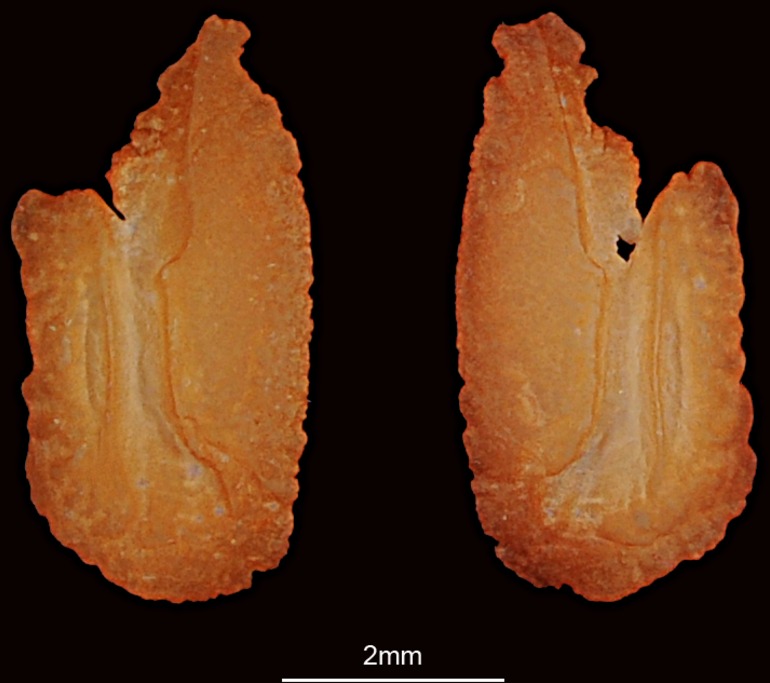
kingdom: Animalia
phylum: Chordata
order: Perciformes
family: Ephippidae
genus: Platax
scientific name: Platax teira
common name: Longfin baitfish
